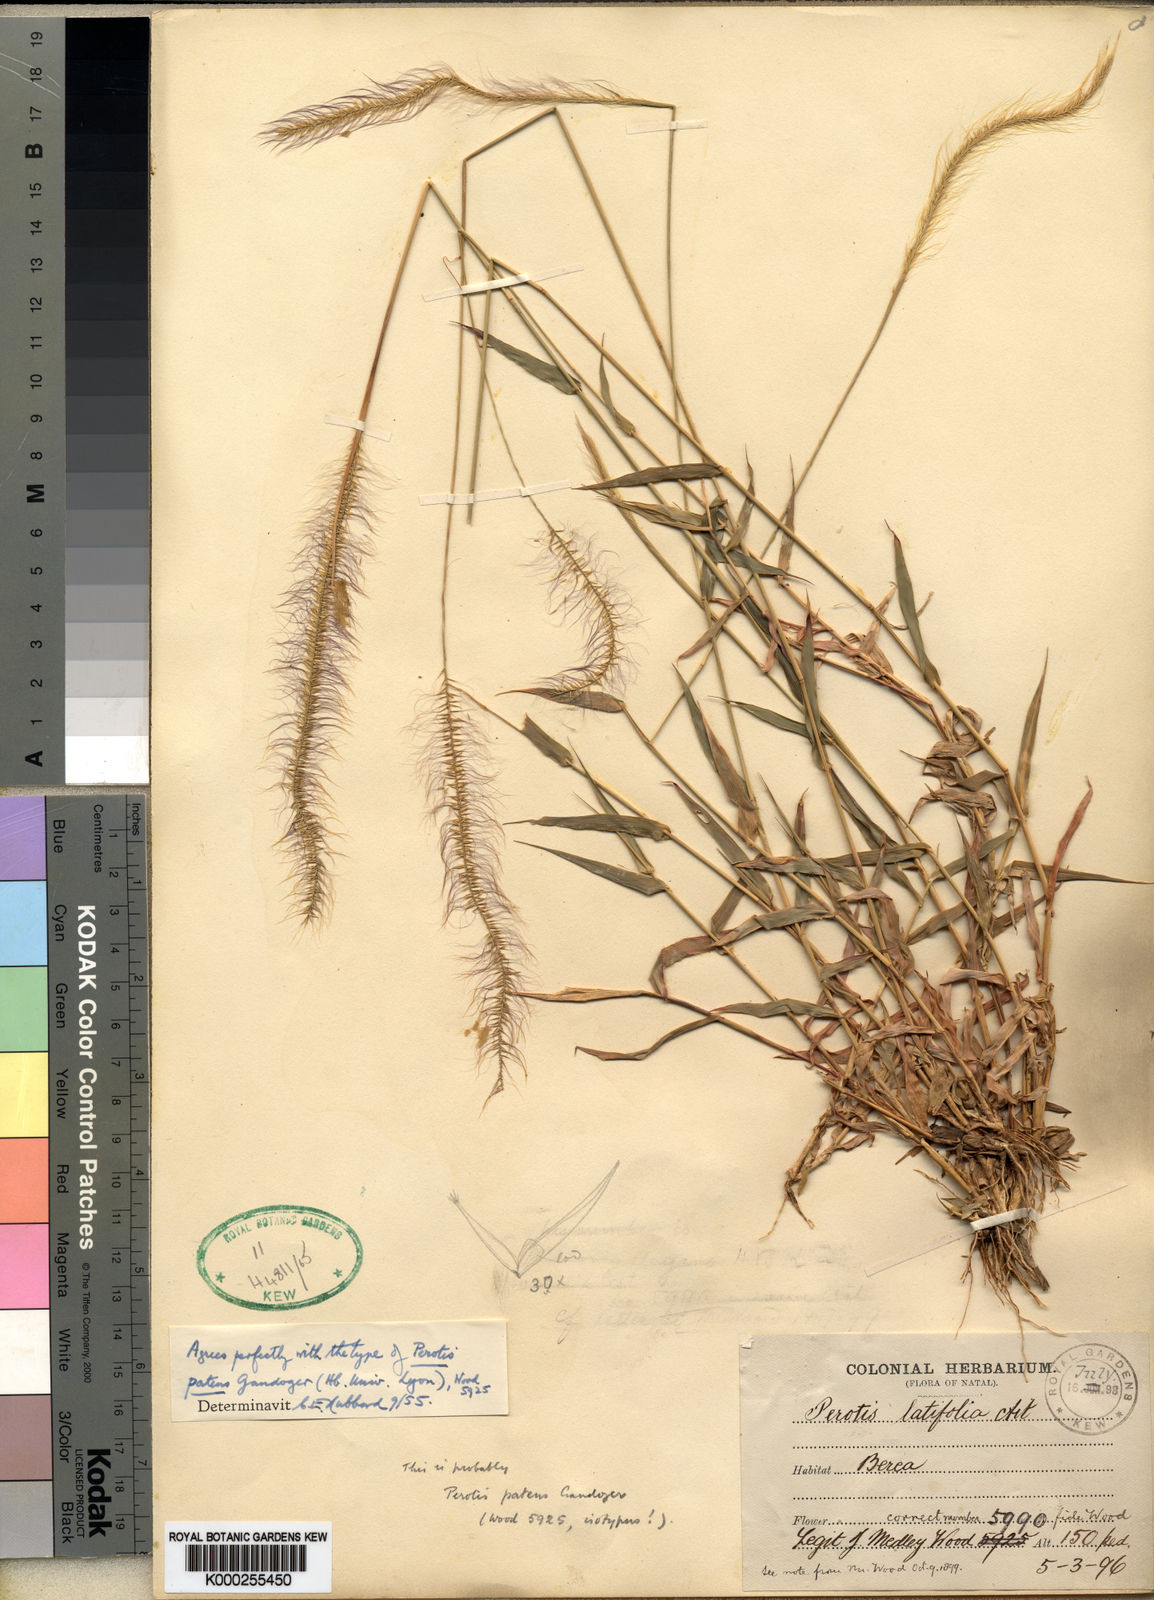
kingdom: Plantae
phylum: Tracheophyta
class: Liliopsida
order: Poales
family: Poaceae
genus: Perotis
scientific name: Perotis patens
